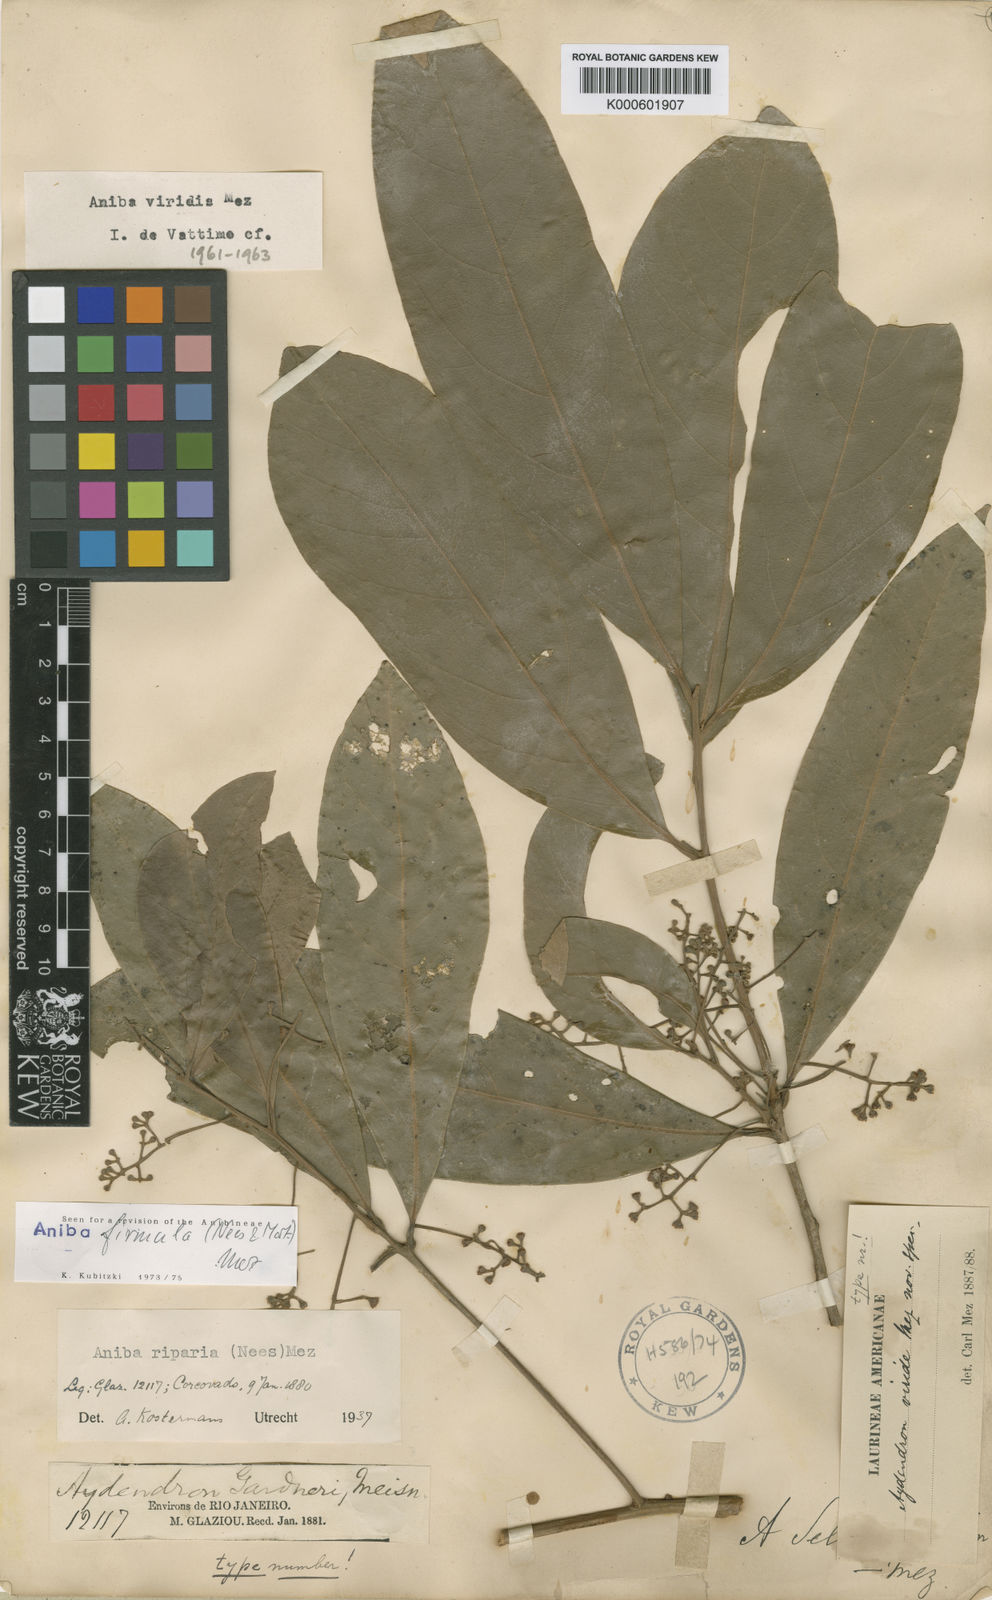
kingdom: Plantae
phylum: Tracheophyta
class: Magnoliopsida
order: Laurales
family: Lauraceae
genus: Aniba
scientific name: Aniba firmula
